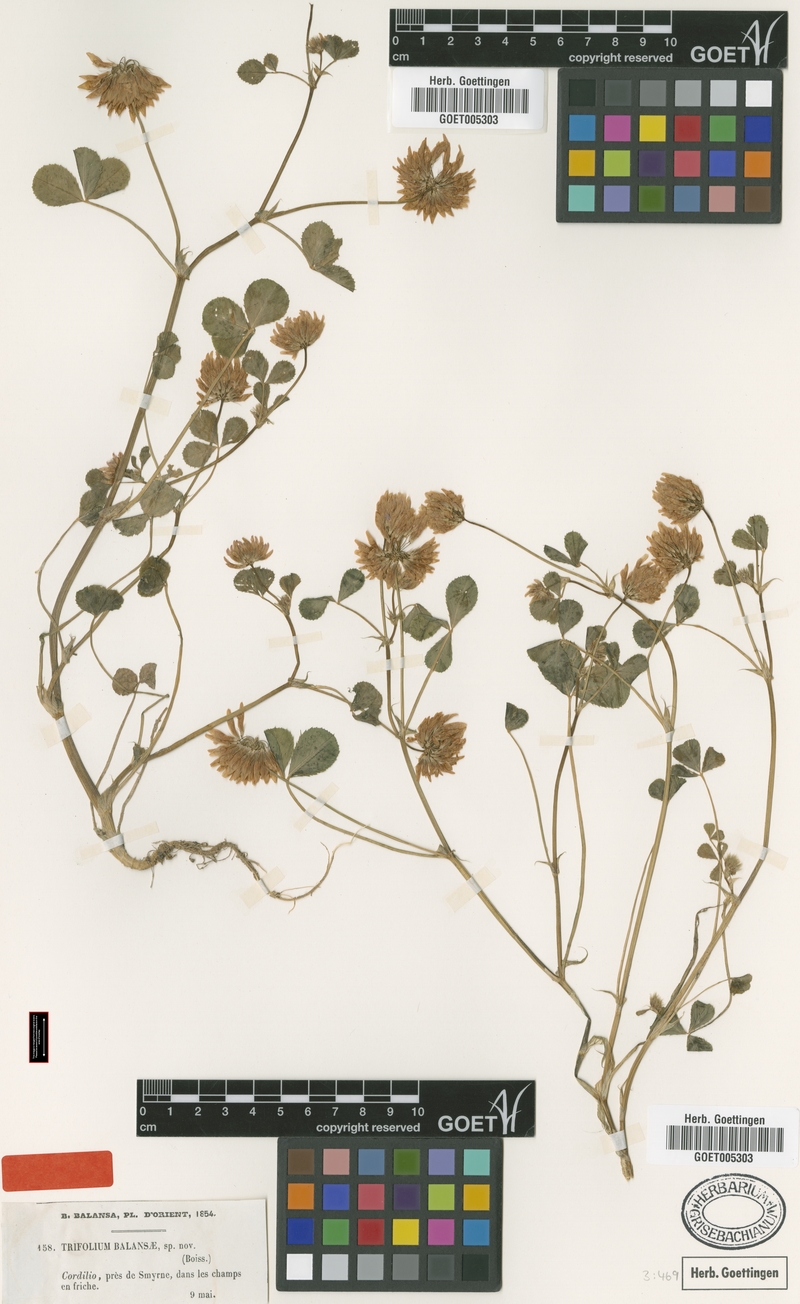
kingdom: Plantae
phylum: Tracheophyta
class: Magnoliopsida
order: Fabales
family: Fabaceae
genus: Trifolium
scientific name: Trifolium michelianum
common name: Bigflower clover
